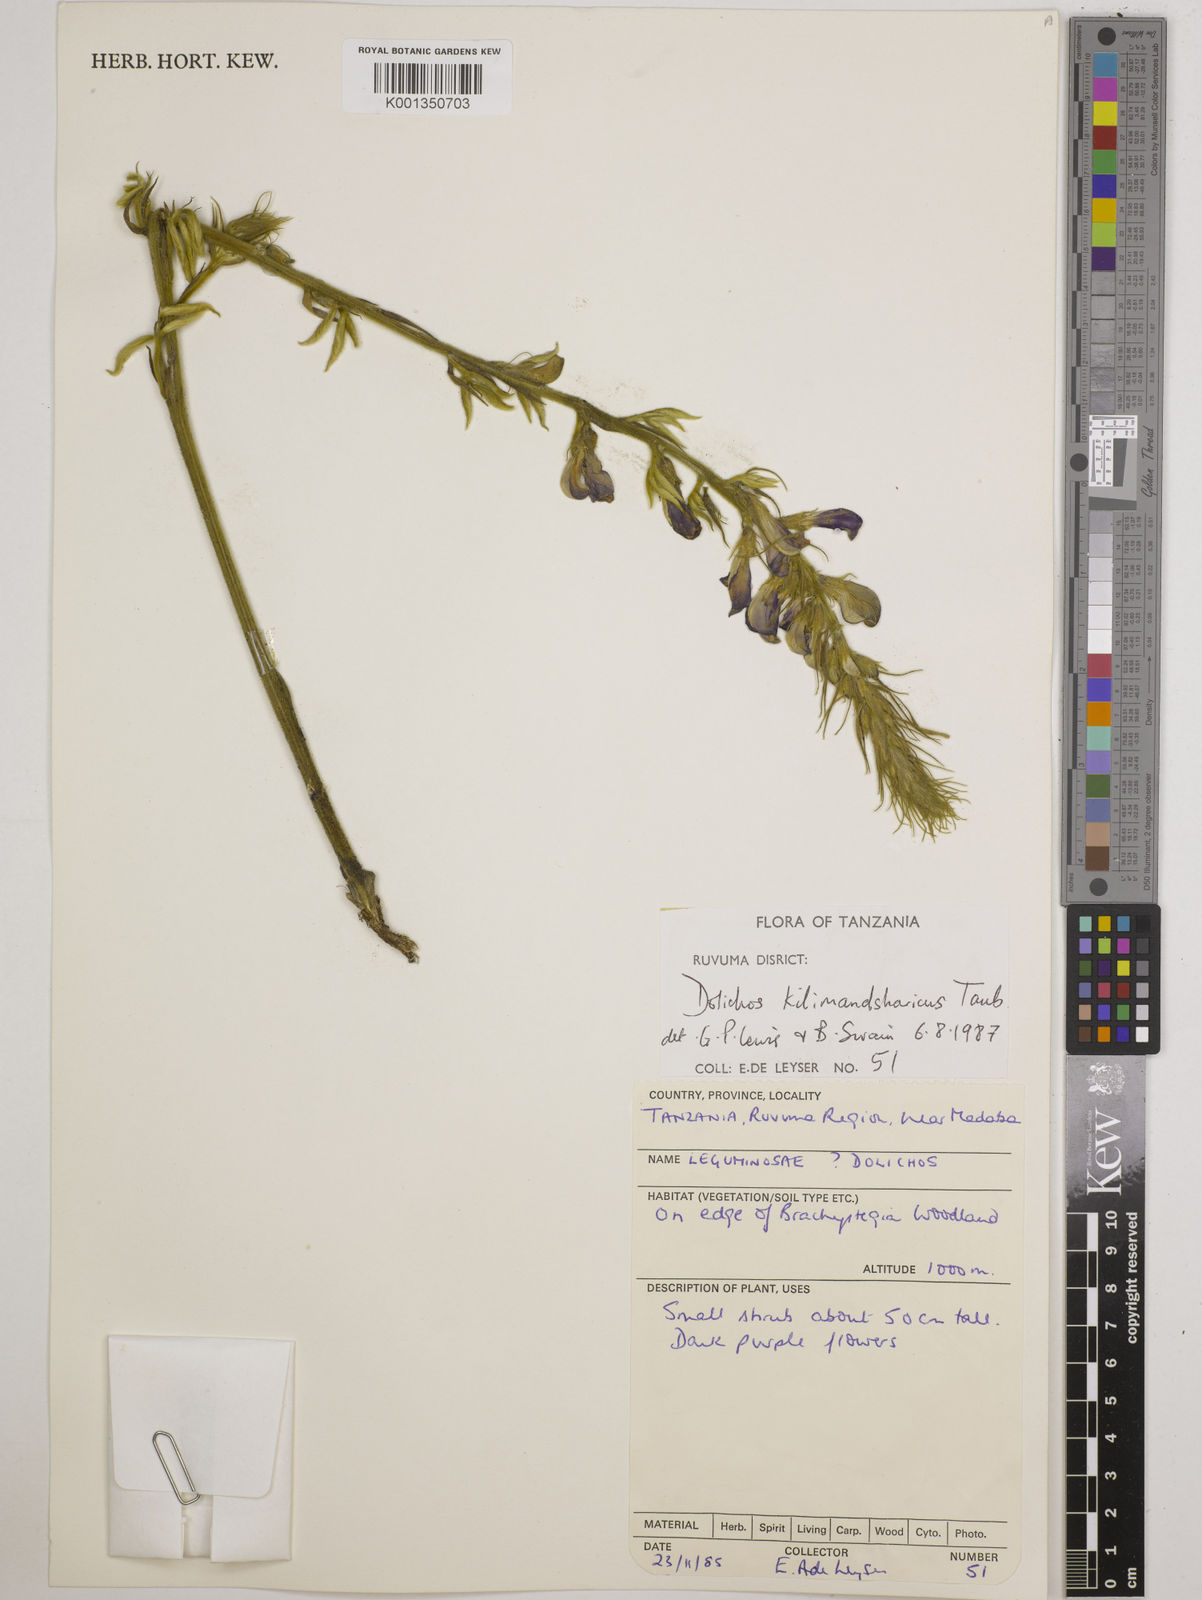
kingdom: Plantae
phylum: Tracheophyta
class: Magnoliopsida
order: Fabales
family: Fabaceae
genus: Dolichos
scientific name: Dolichos kilimandscharicus
